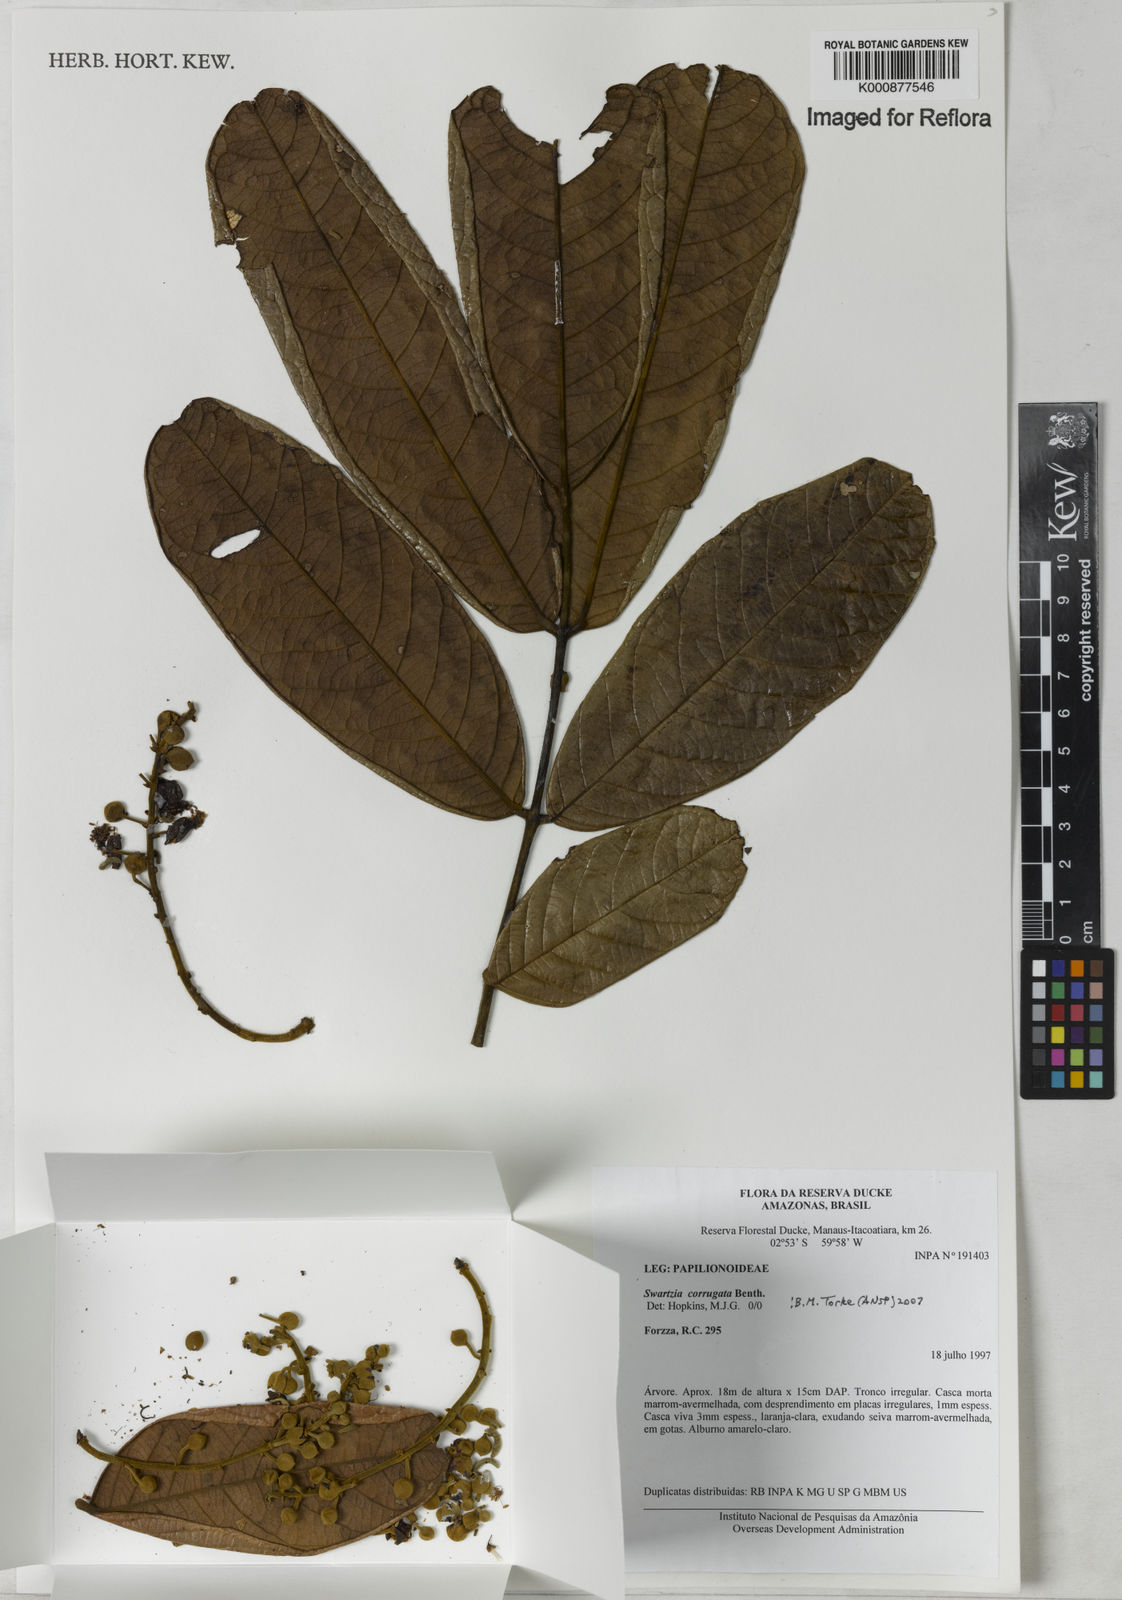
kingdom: Plantae
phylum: Tracheophyta
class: Magnoliopsida
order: Fabales
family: Fabaceae
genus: Swartzia
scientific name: Swartzia corrugata
